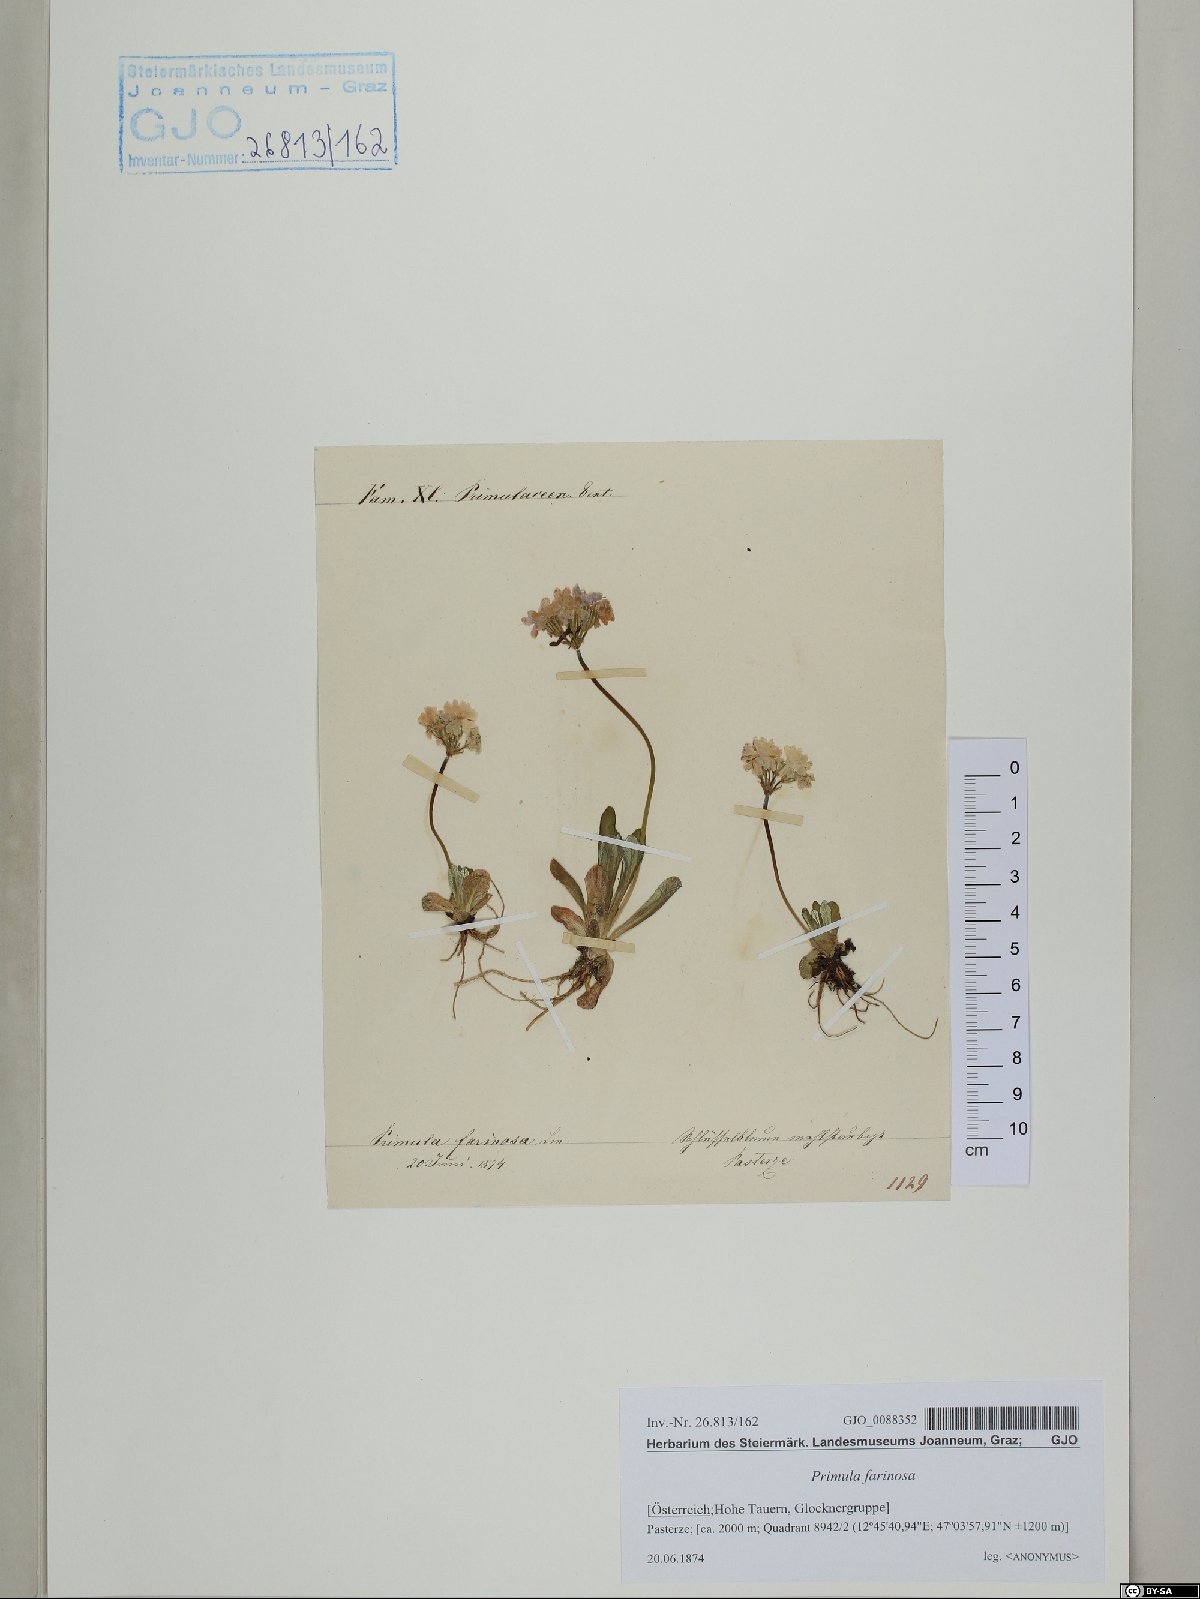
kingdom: Plantae
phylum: Tracheophyta
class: Magnoliopsida
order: Ericales
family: Primulaceae
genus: Primula
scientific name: Primula farinosa
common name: Bird's-eye primrose
